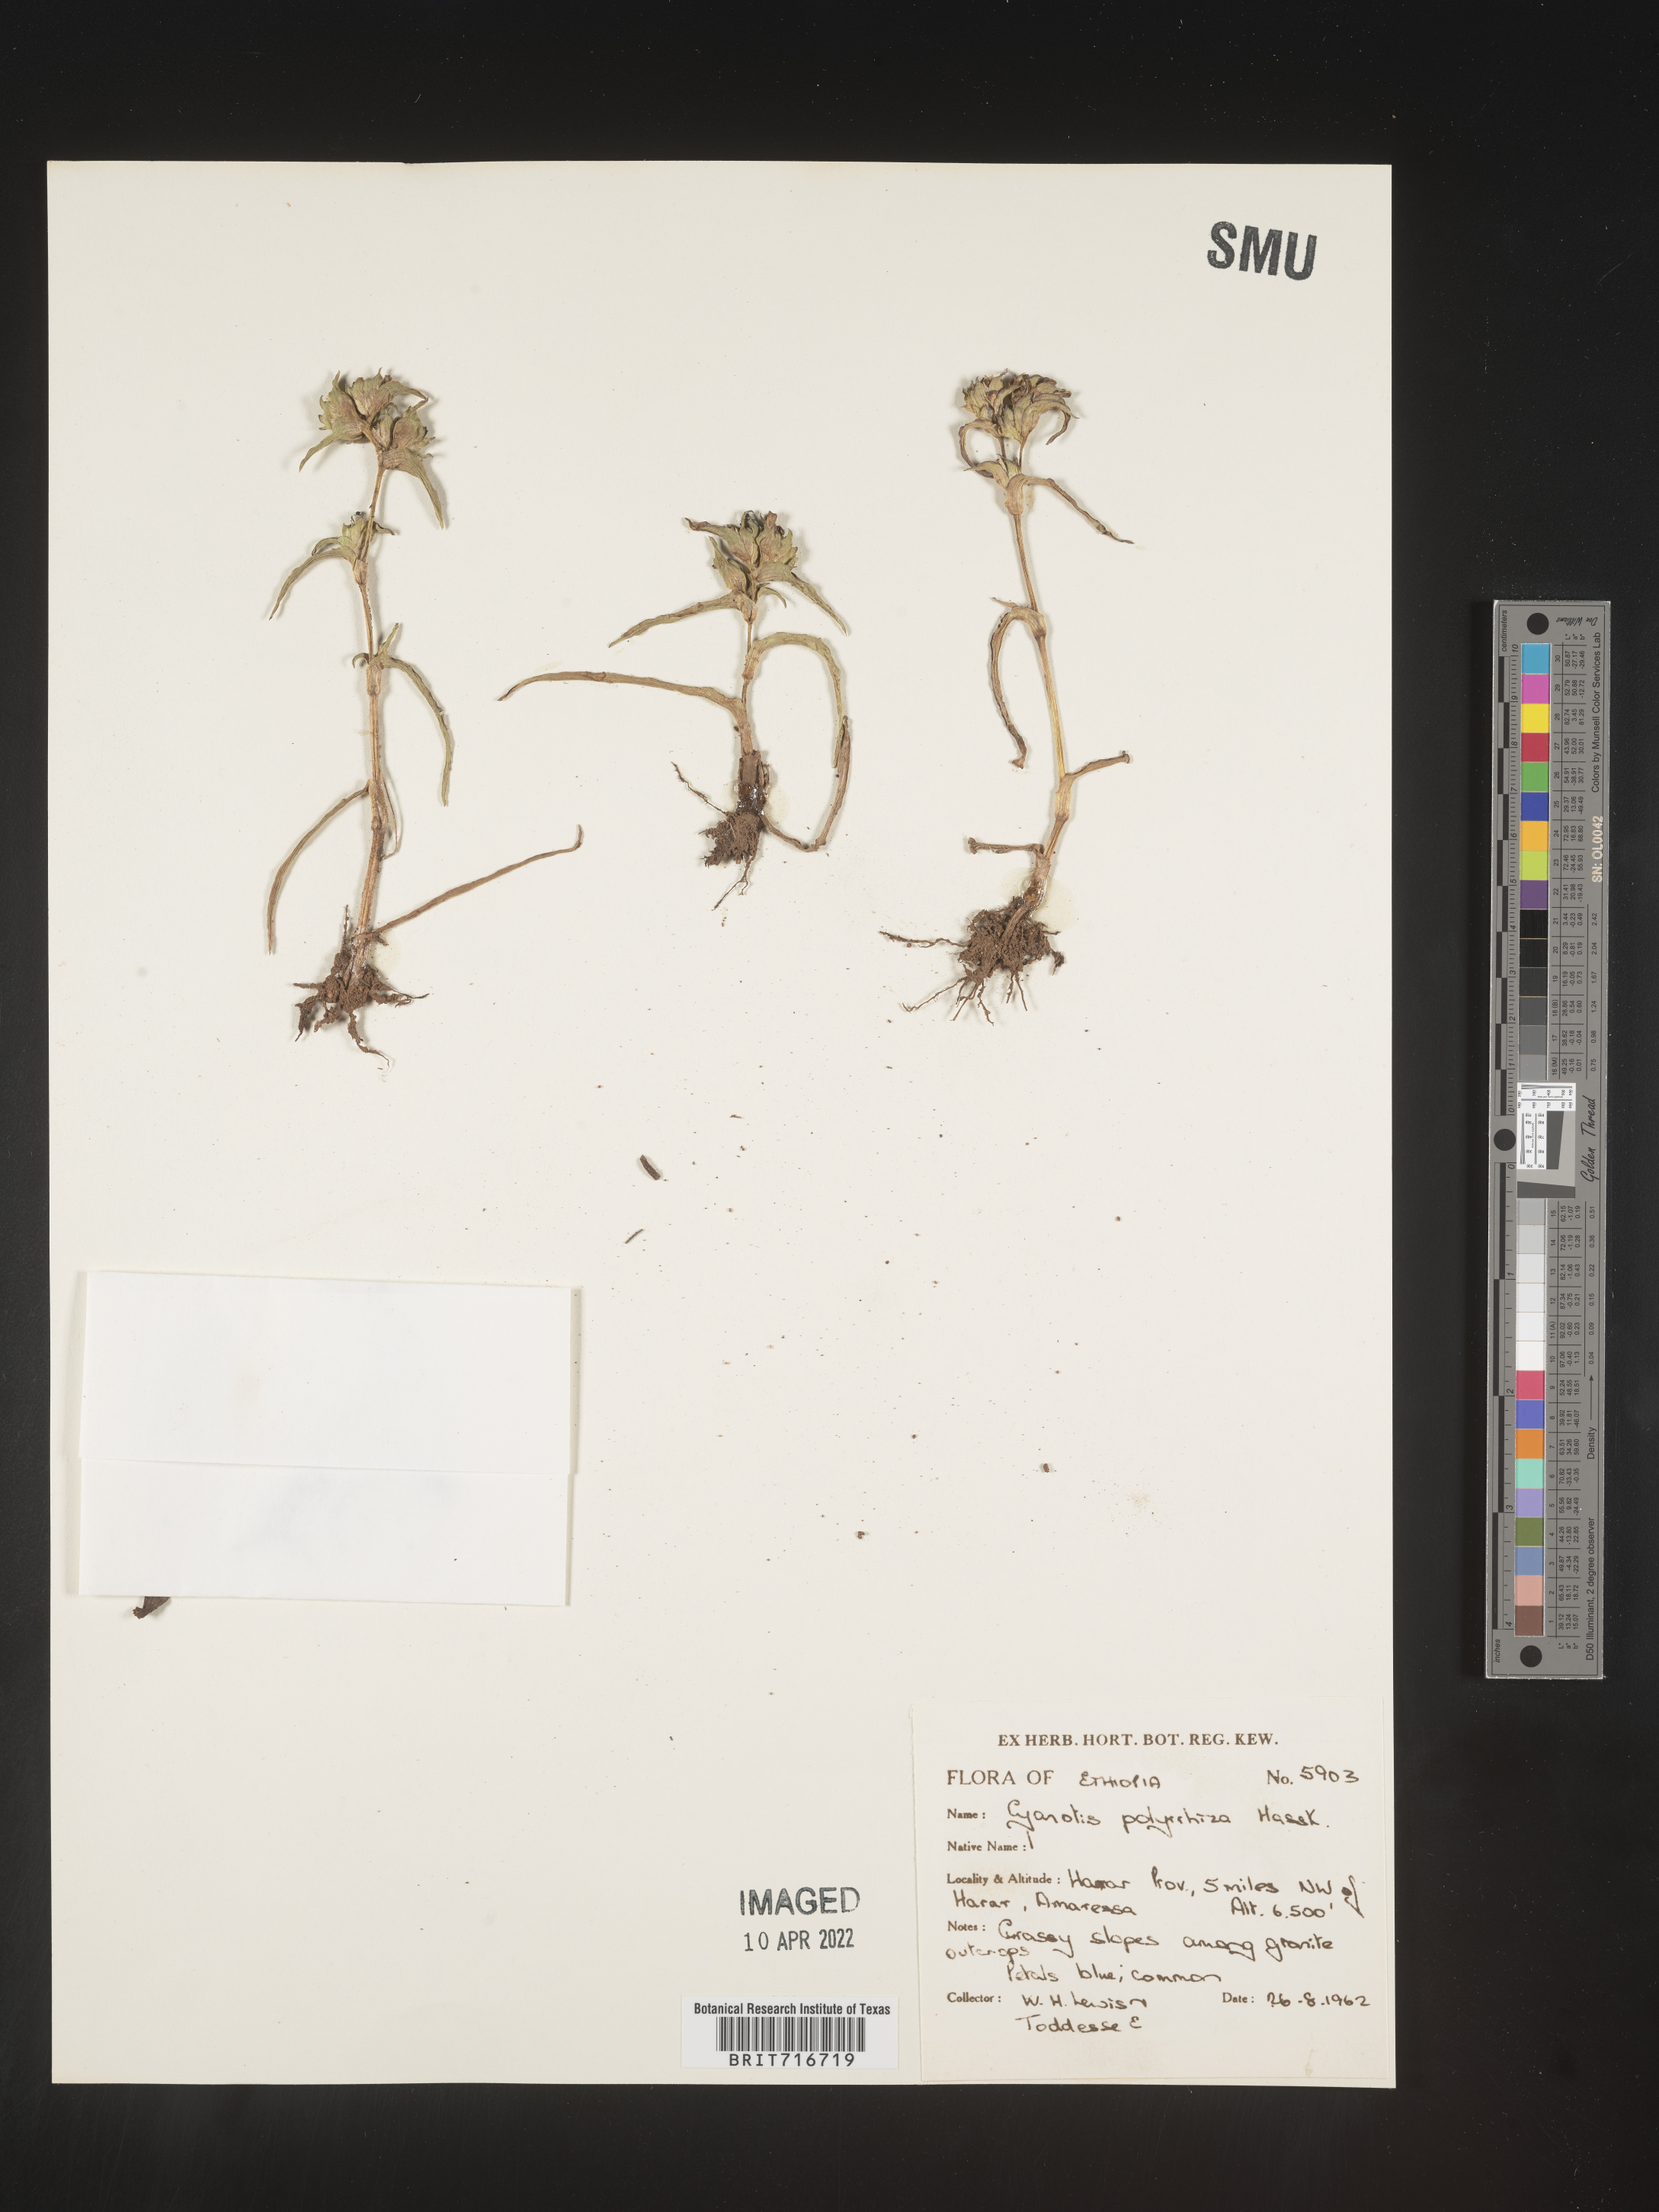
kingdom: Plantae
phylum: Tracheophyta
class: Liliopsida
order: Commelinales
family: Commelinaceae
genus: Cyanotis
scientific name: Cyanotis
